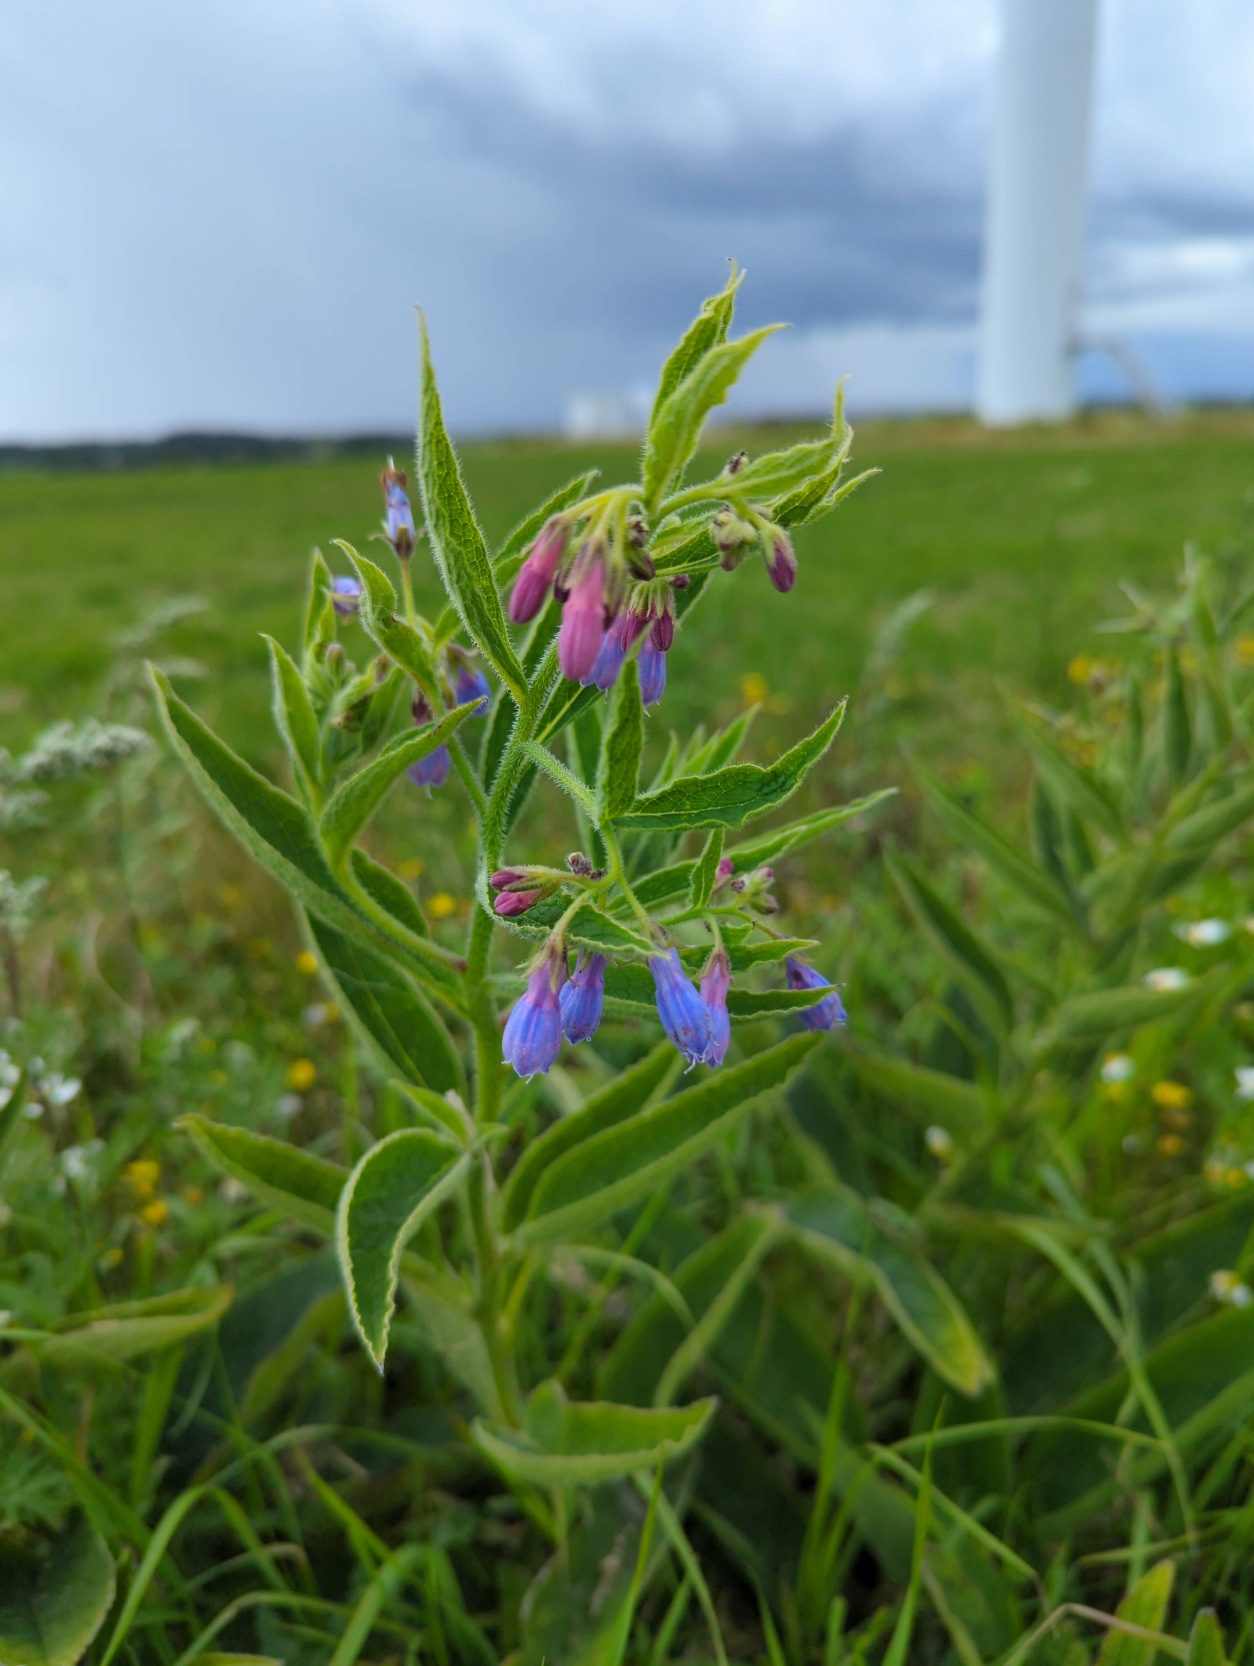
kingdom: Plantae
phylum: Tracheophyta
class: Magnoliopsida
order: Boraginales
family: Boraginaceae
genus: Symphytum
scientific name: Symphytum uplandicum
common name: Foder-kulsukker
